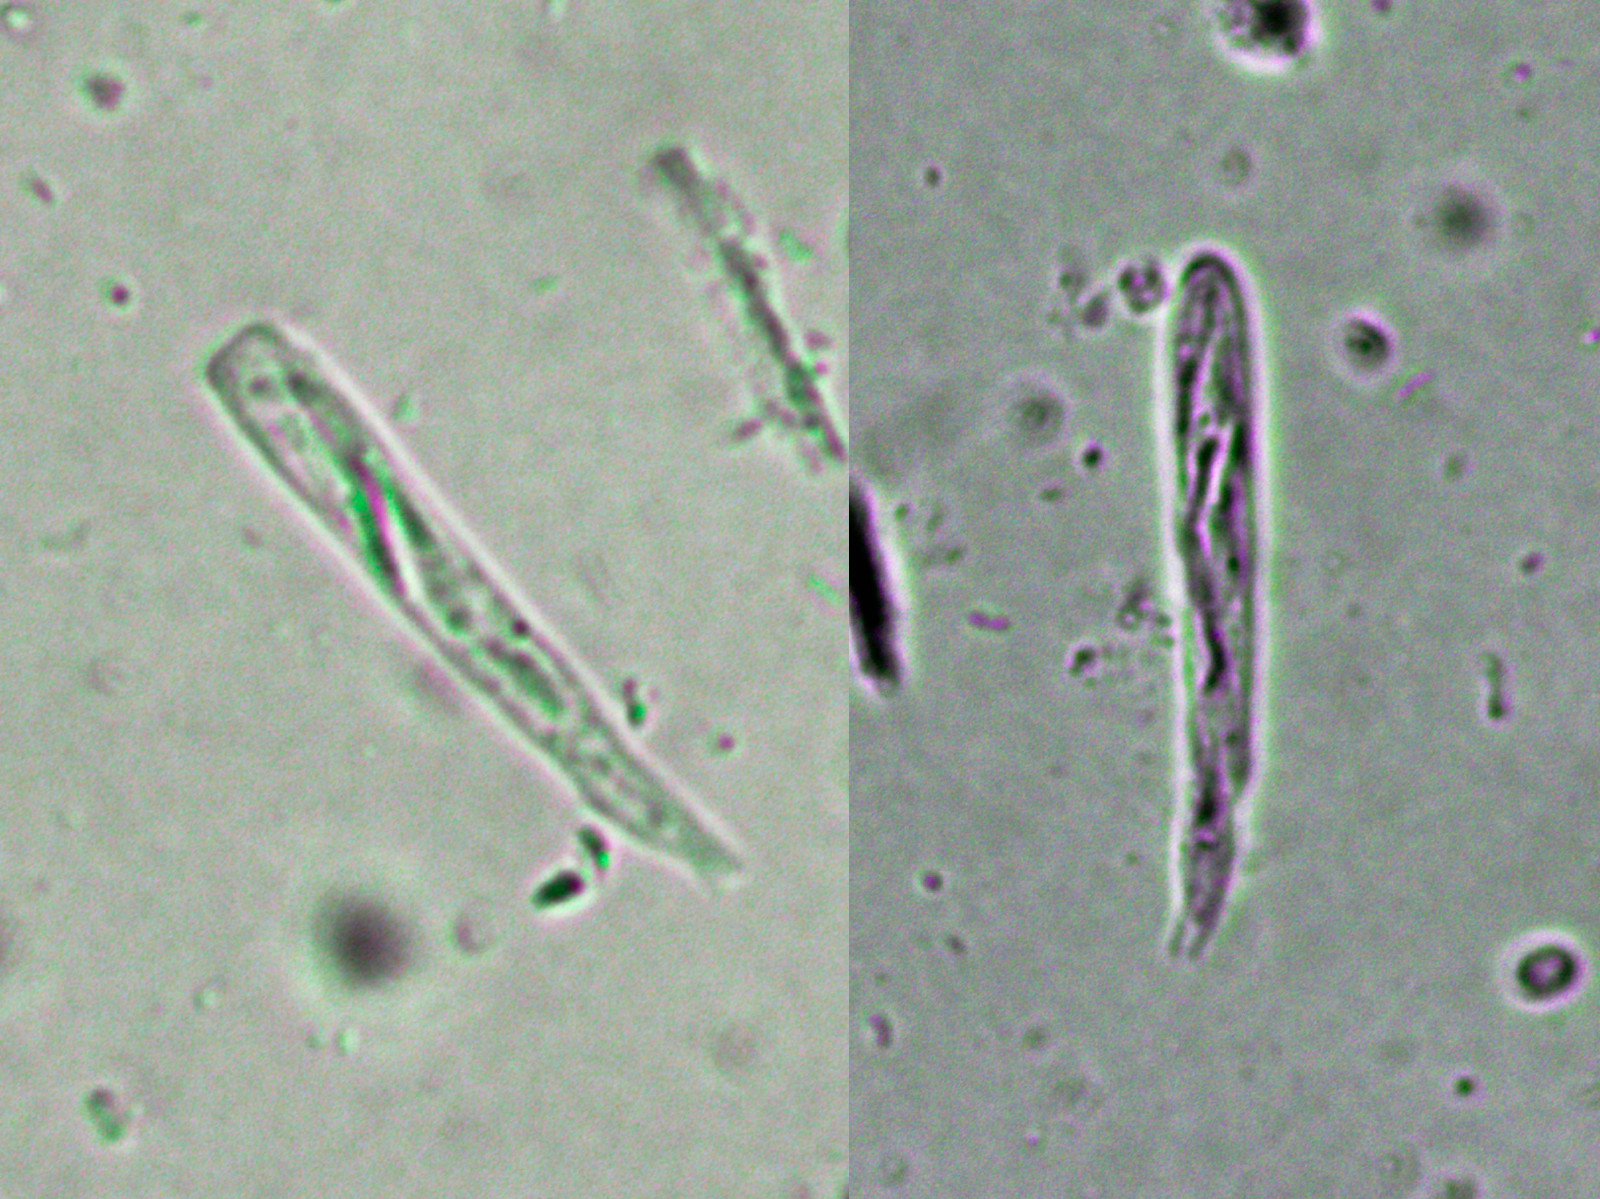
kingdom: Fungi
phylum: Ascomycota
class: Orbiliomycetes
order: Orbiliales
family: Orbiliaceae
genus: Orbilia
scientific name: Orbilia
